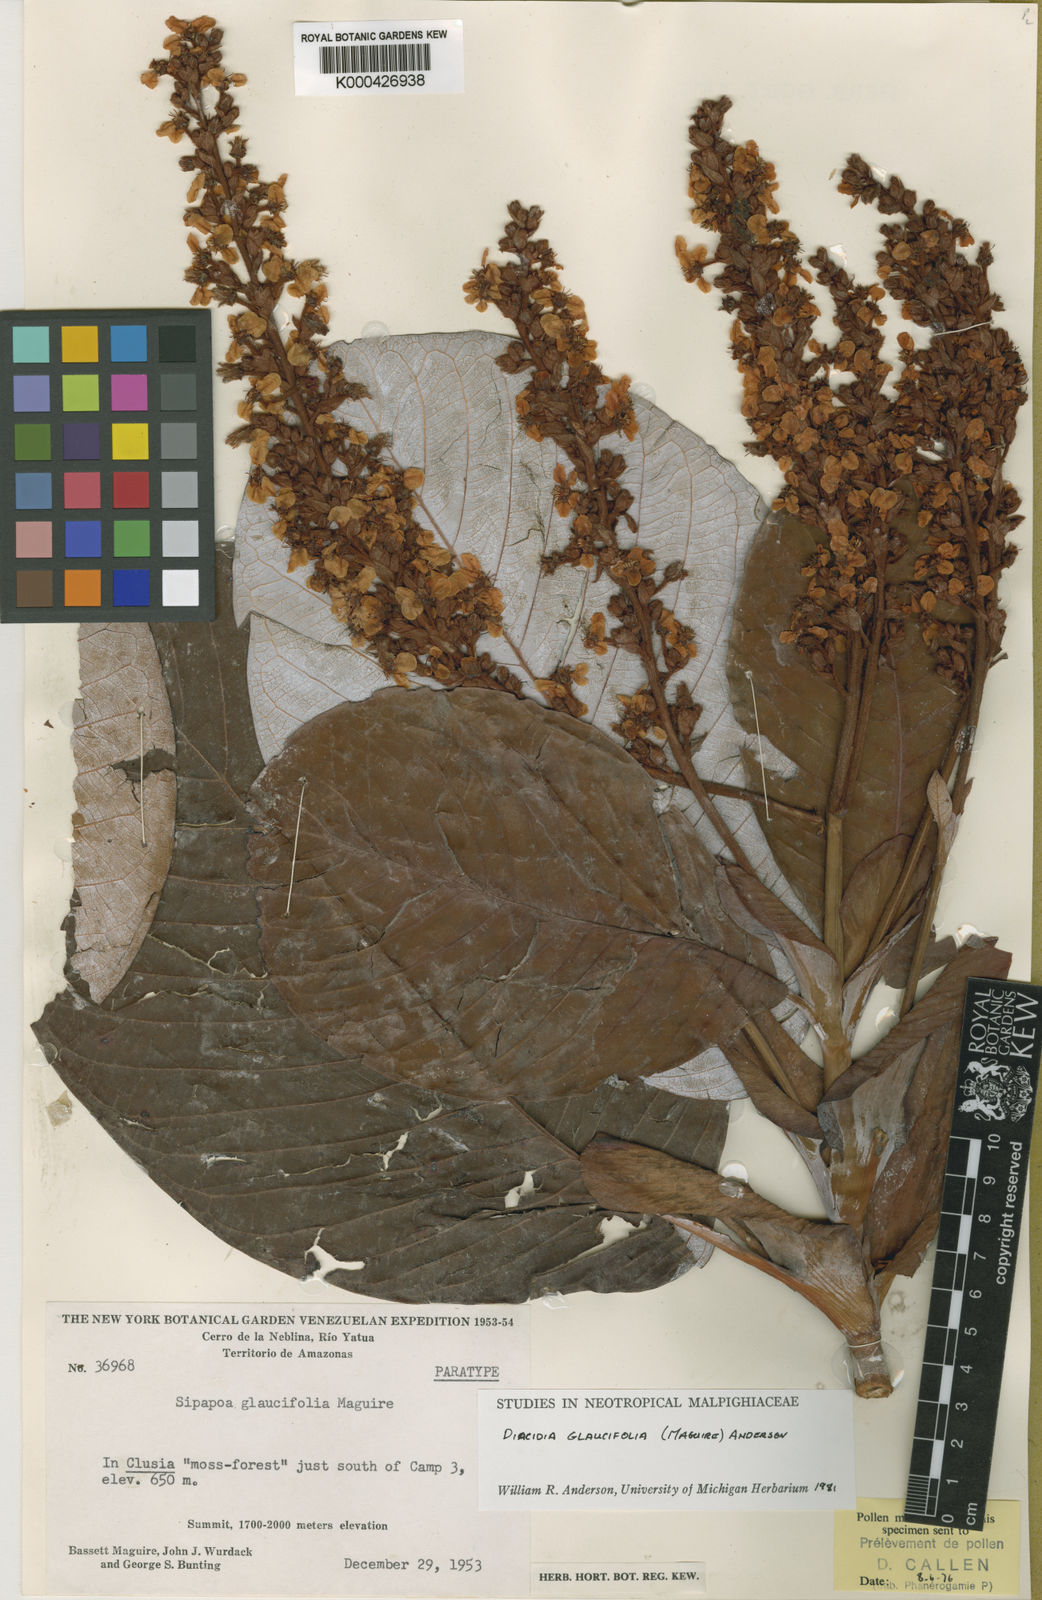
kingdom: Plantae
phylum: Tracheophyta
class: Magnoliopsida
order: Malpighiales
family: Malpighiaceae
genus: Diacidia
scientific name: Diacidia glaucifolia
